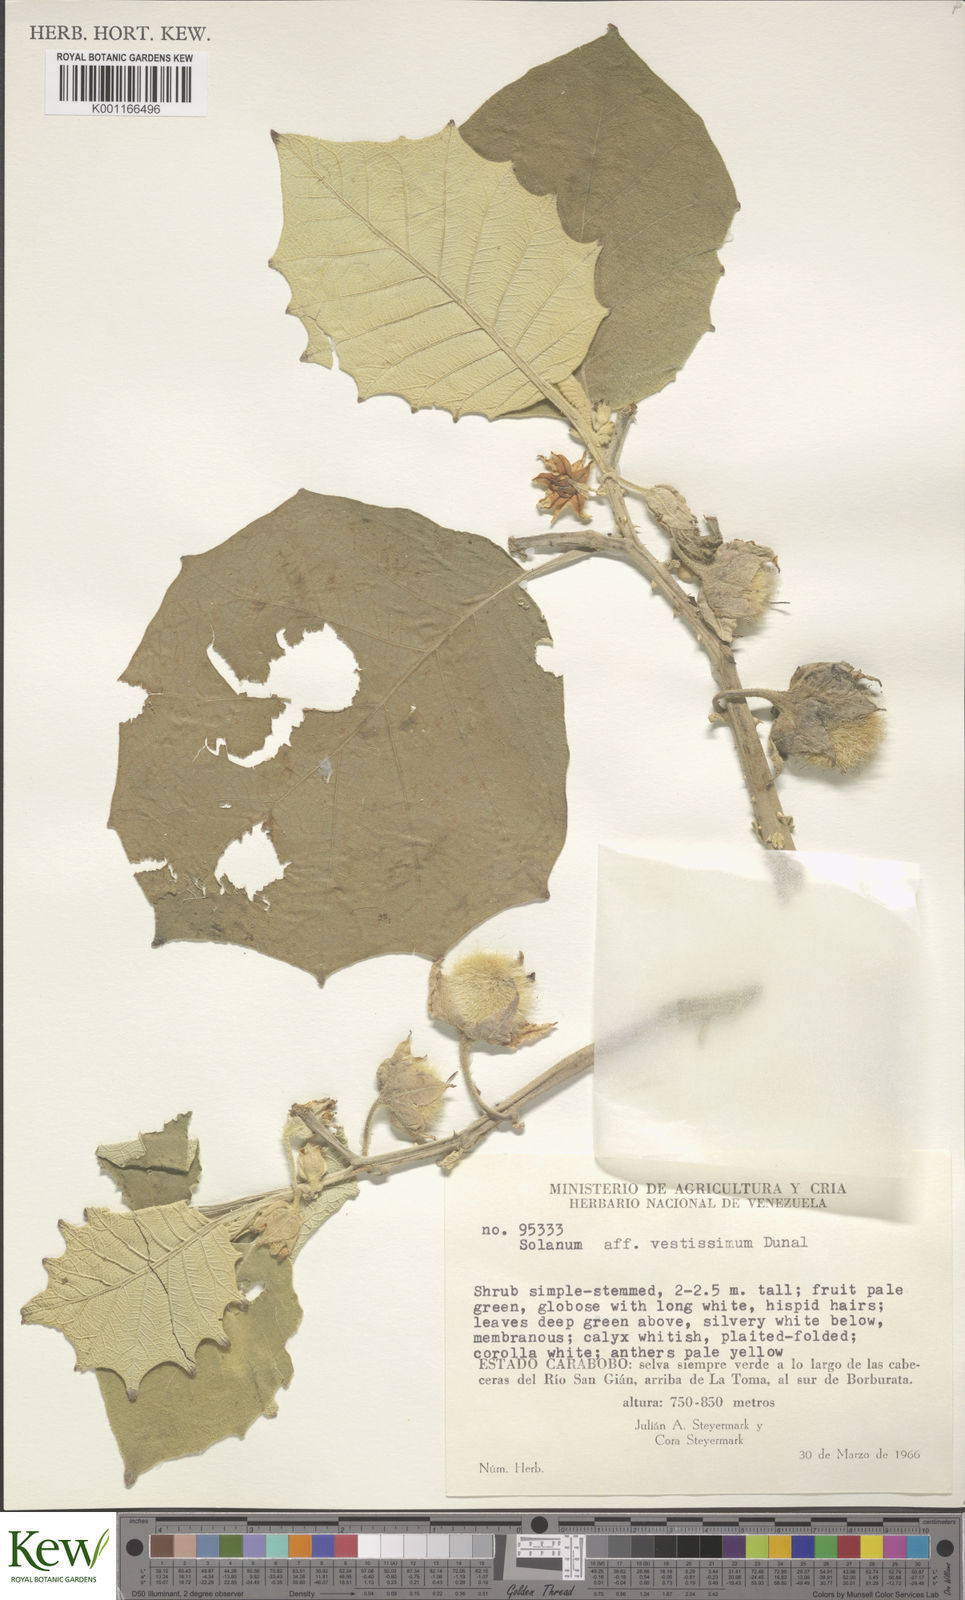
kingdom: Plantae
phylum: Tracheophyta
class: Magnoliopsida
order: Solanales
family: Solanaceae
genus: Solanum
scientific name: Solanum
